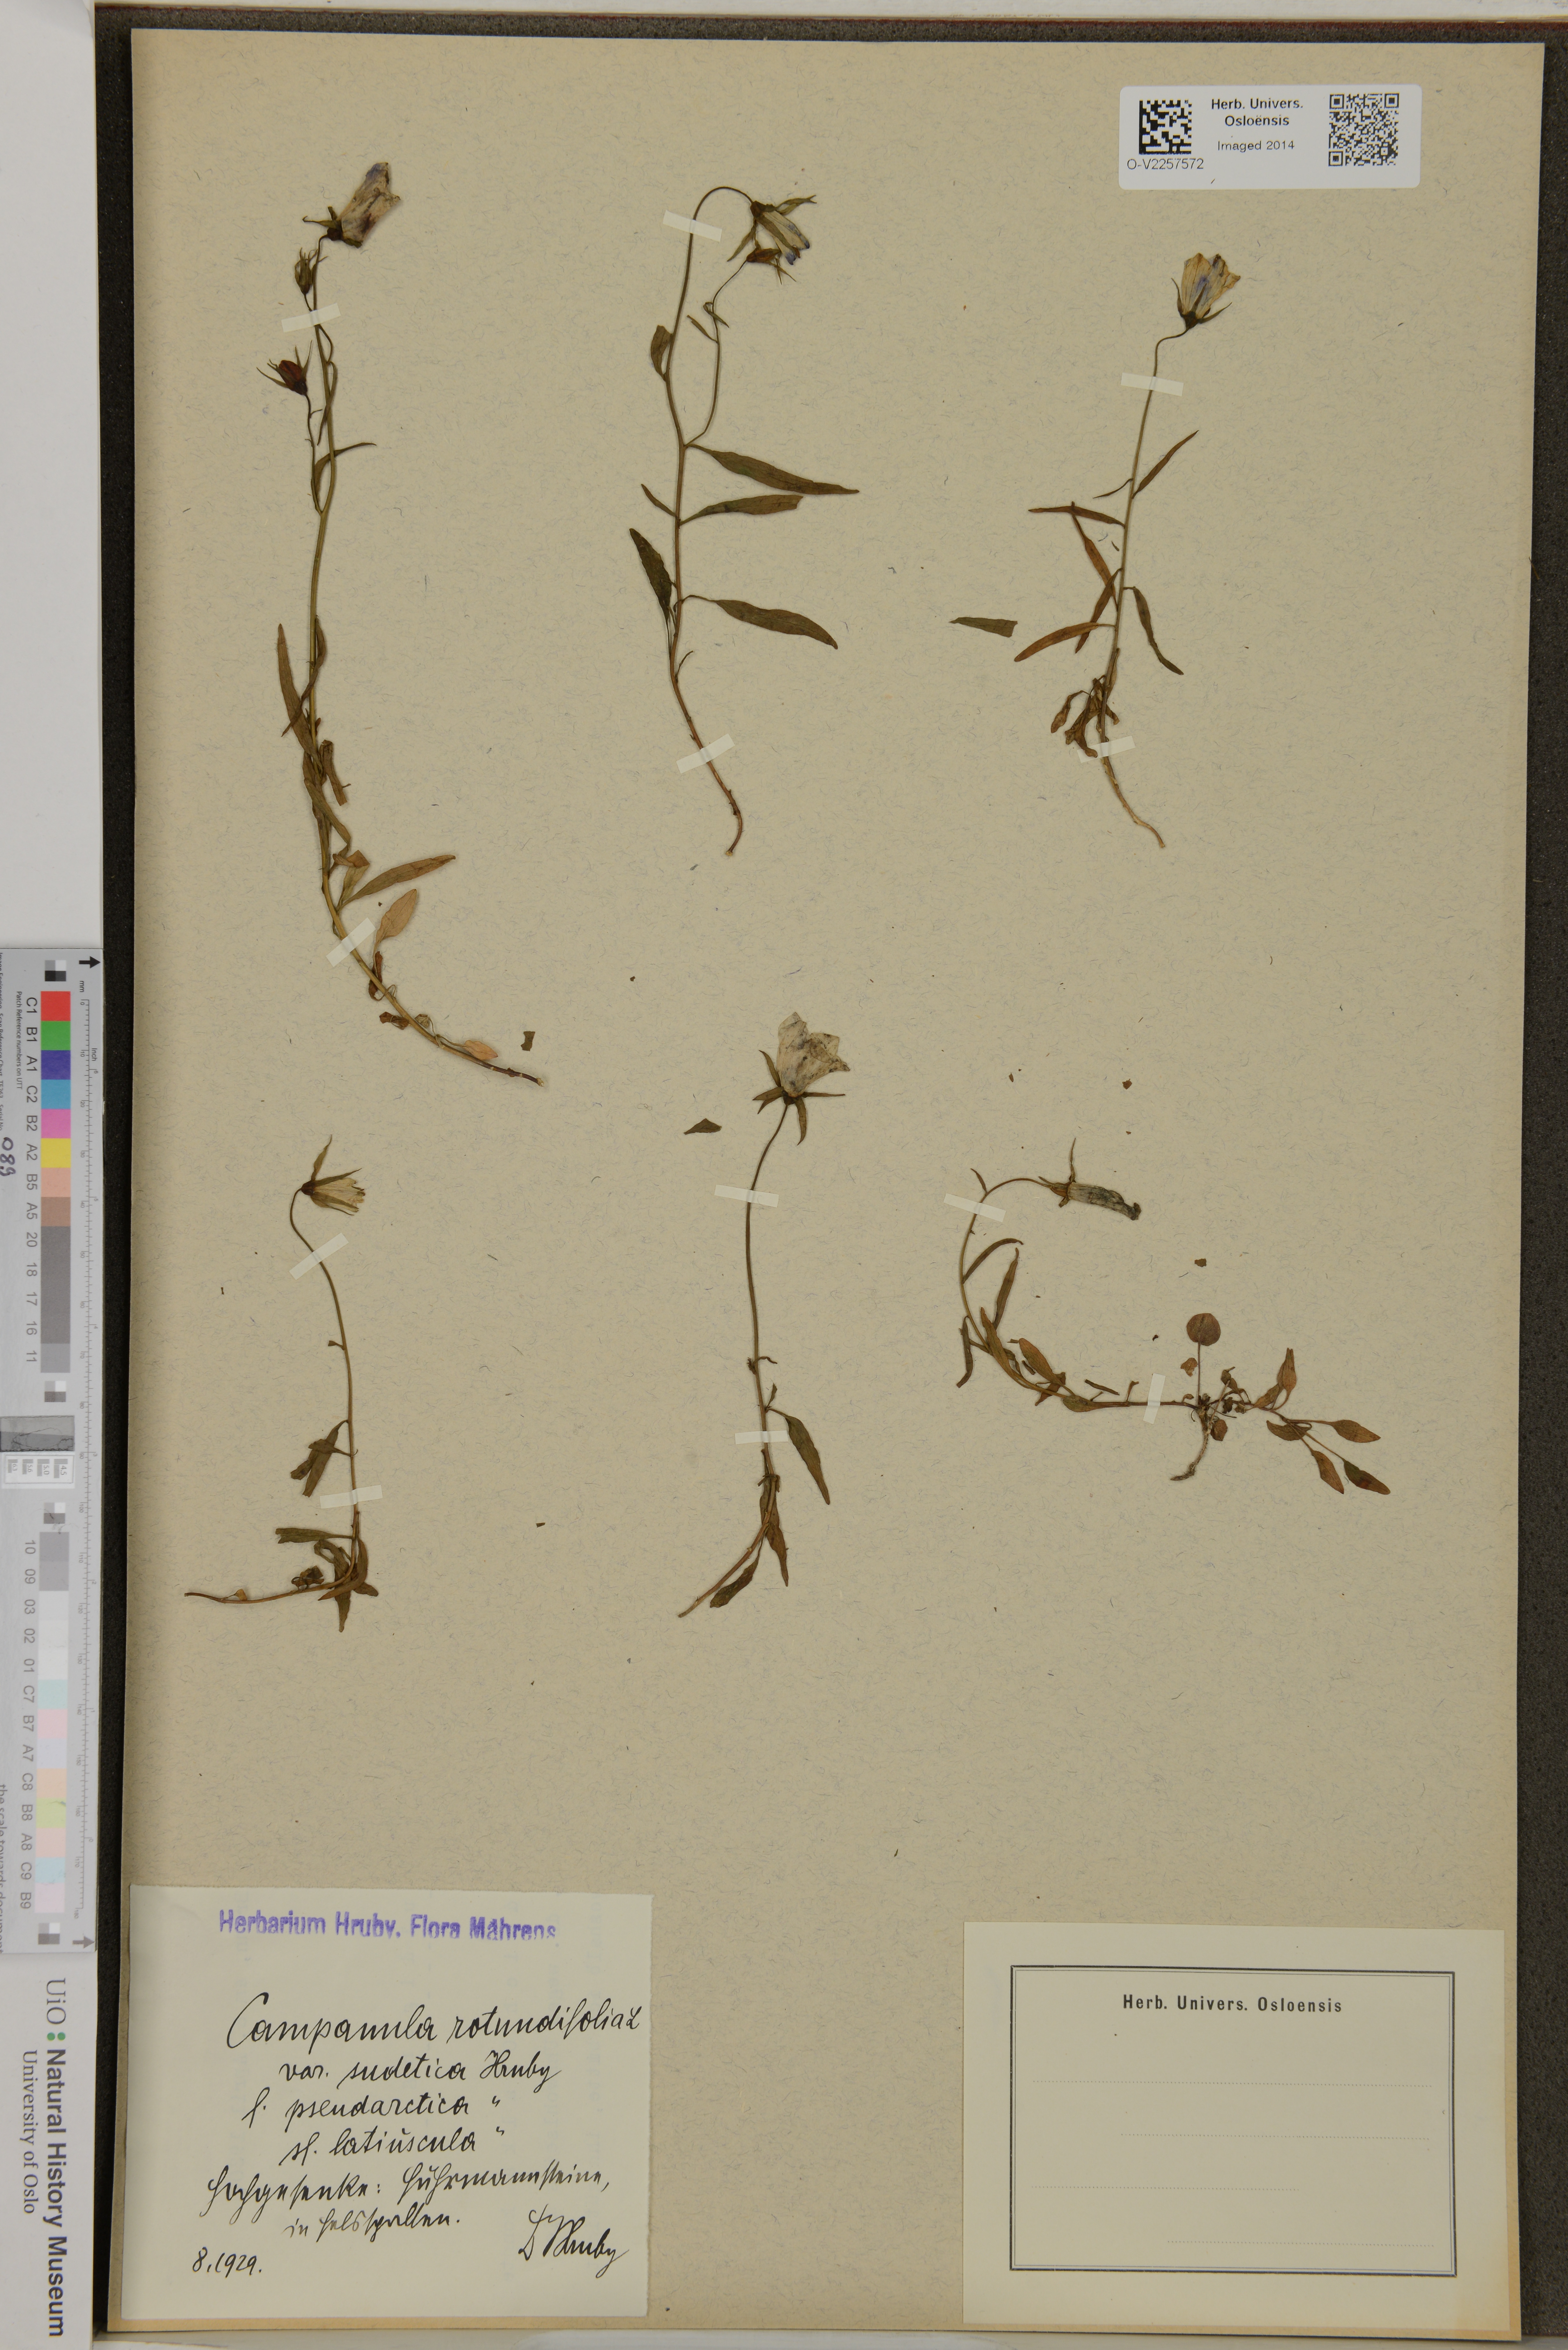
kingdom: Plantae
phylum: Tracheophyta
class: Magnoliopsida
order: Asterales
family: Campanulaceae
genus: Campanula
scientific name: Campanula rotundifolia
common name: Harebell
